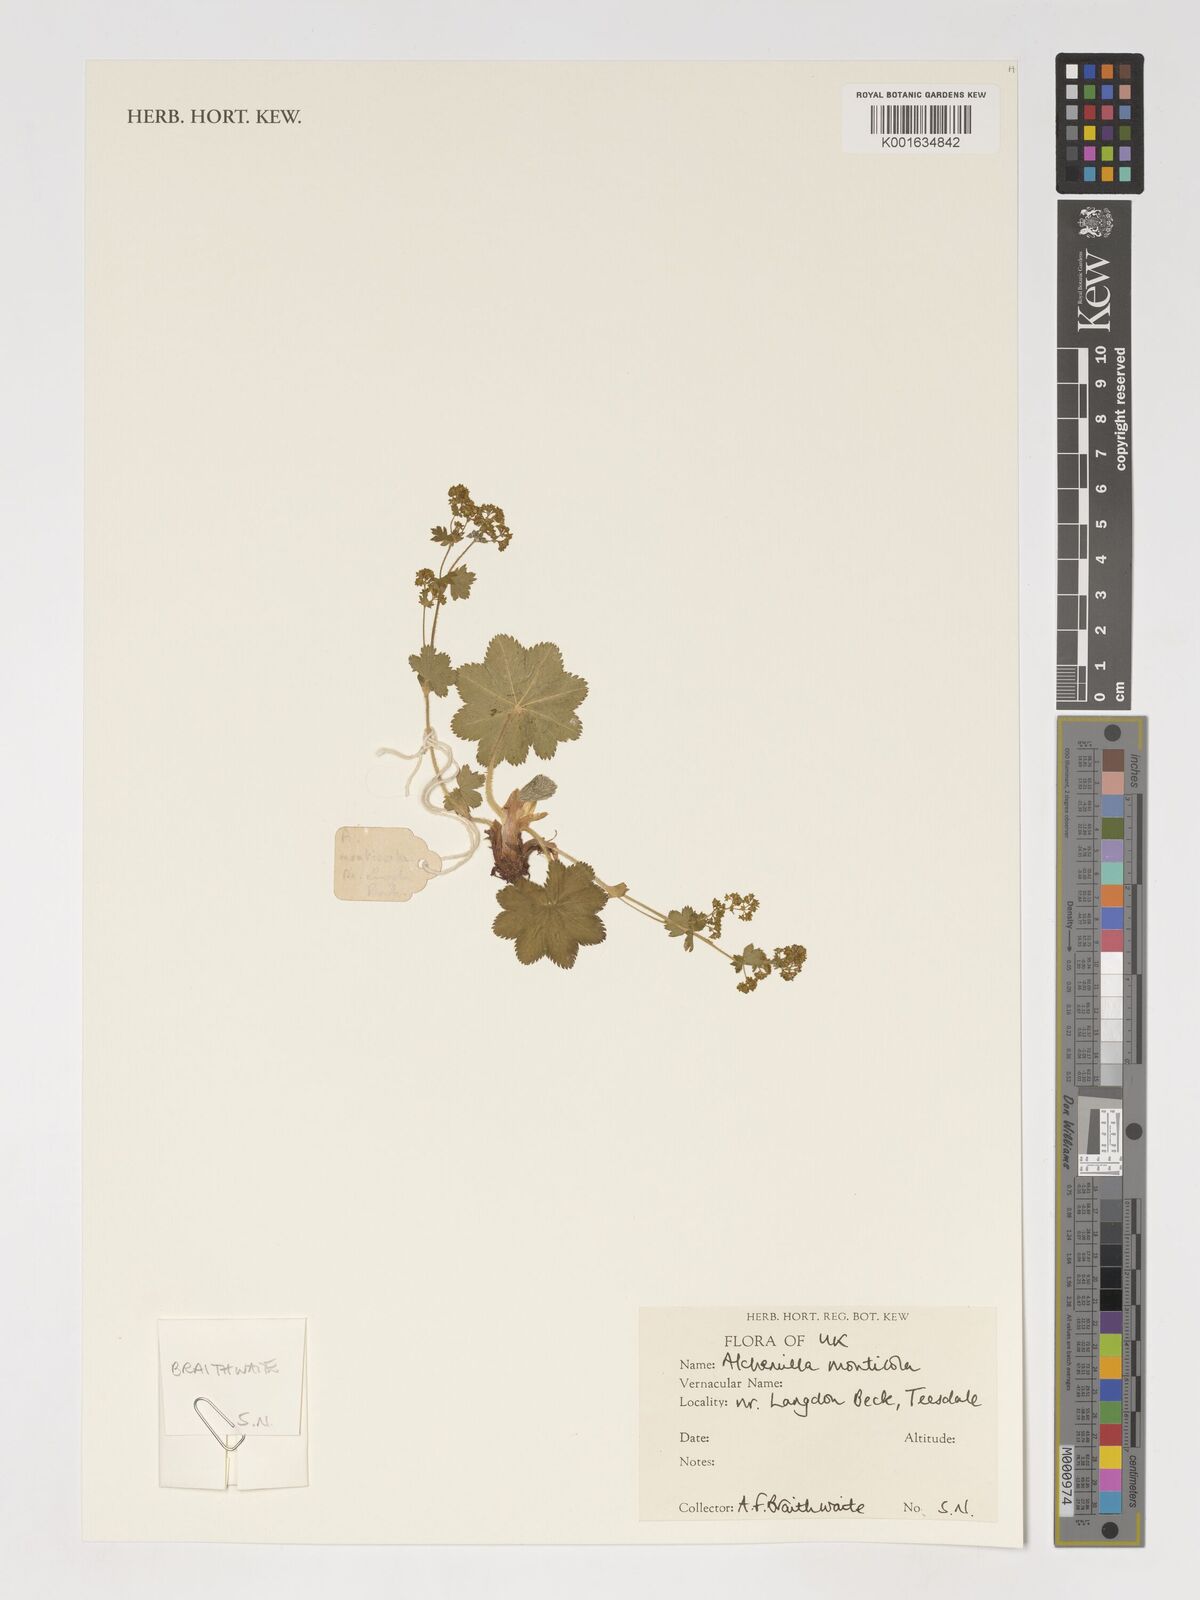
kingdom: Plantae
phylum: Tracheophyta
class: Magnoliopsida
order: Rosales
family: Rosaceae
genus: Alchemilla
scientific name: Alchemilla monticola
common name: Hairy lady's mantle
